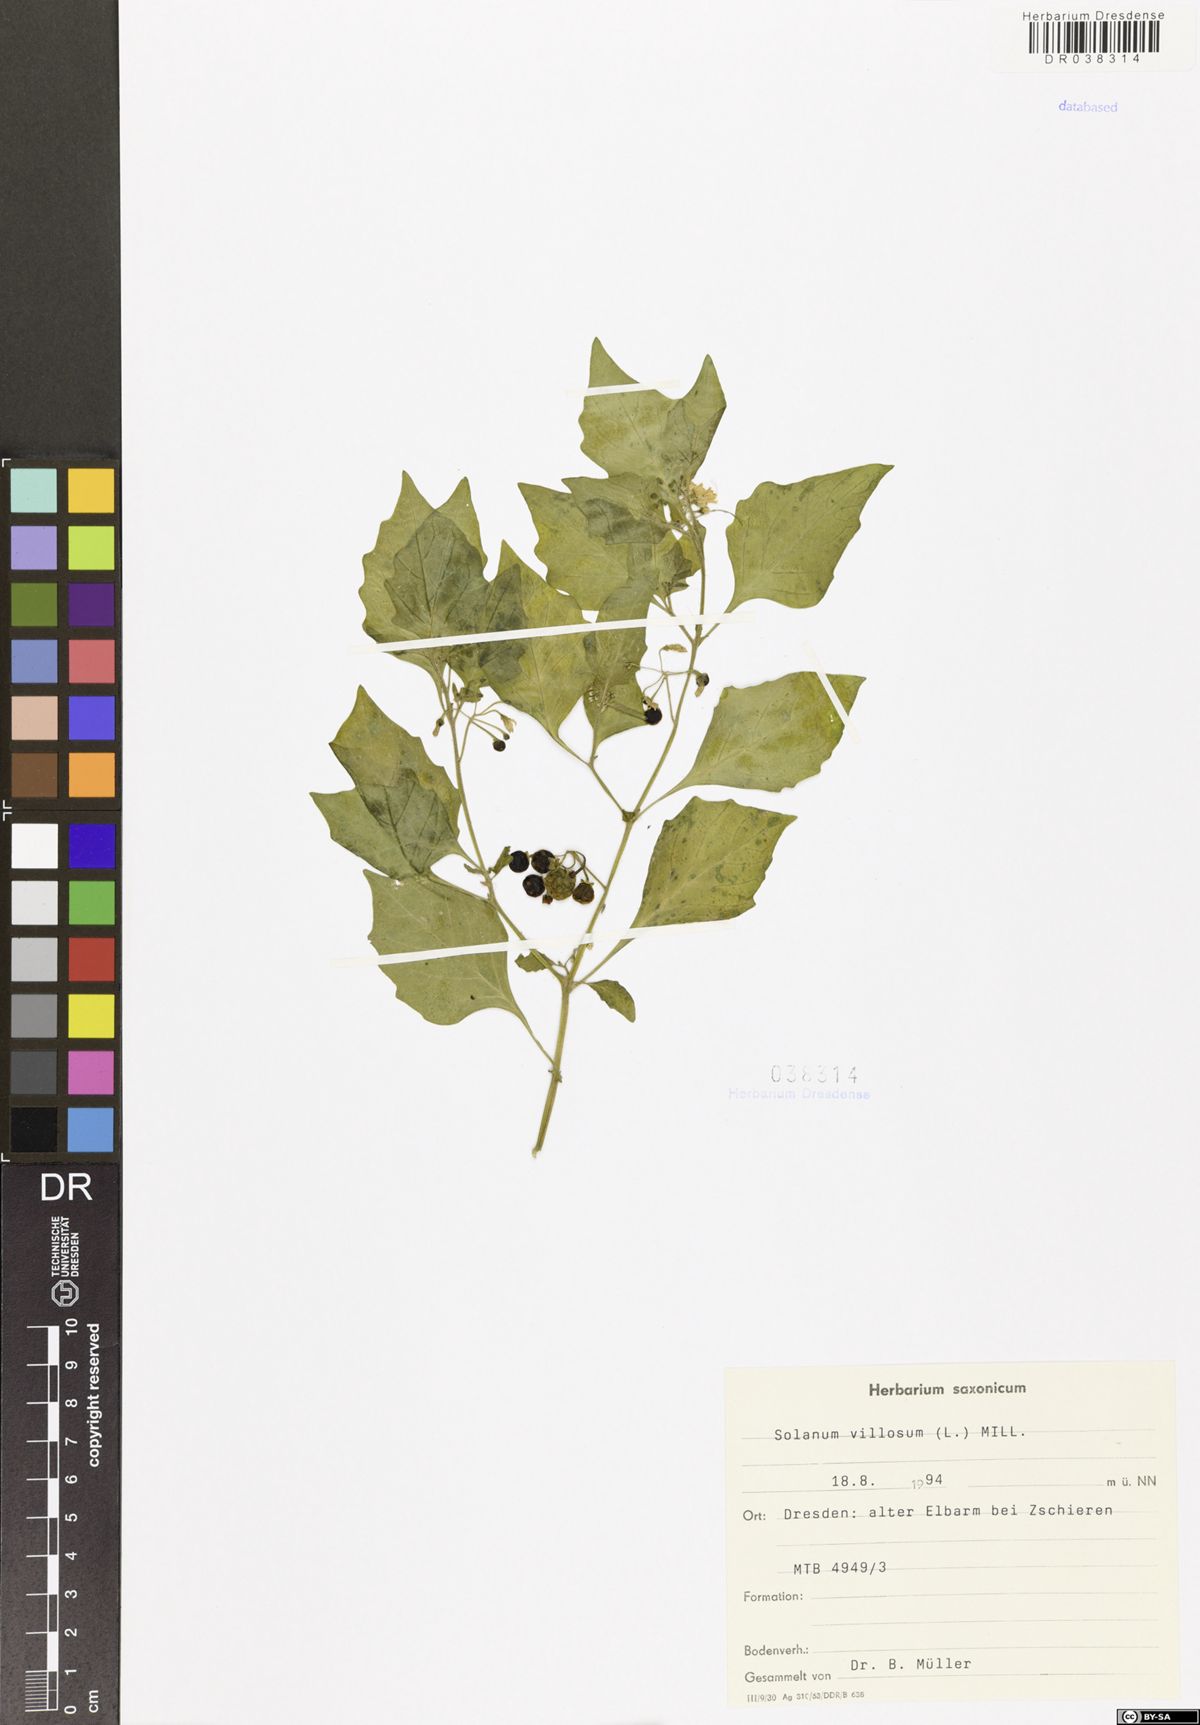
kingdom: Plantae
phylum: Tracheophyta
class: Magnoliopsida
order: Solanales
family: Solanaceae
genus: Solanum
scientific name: Solanum villosum
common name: Red nightshade
